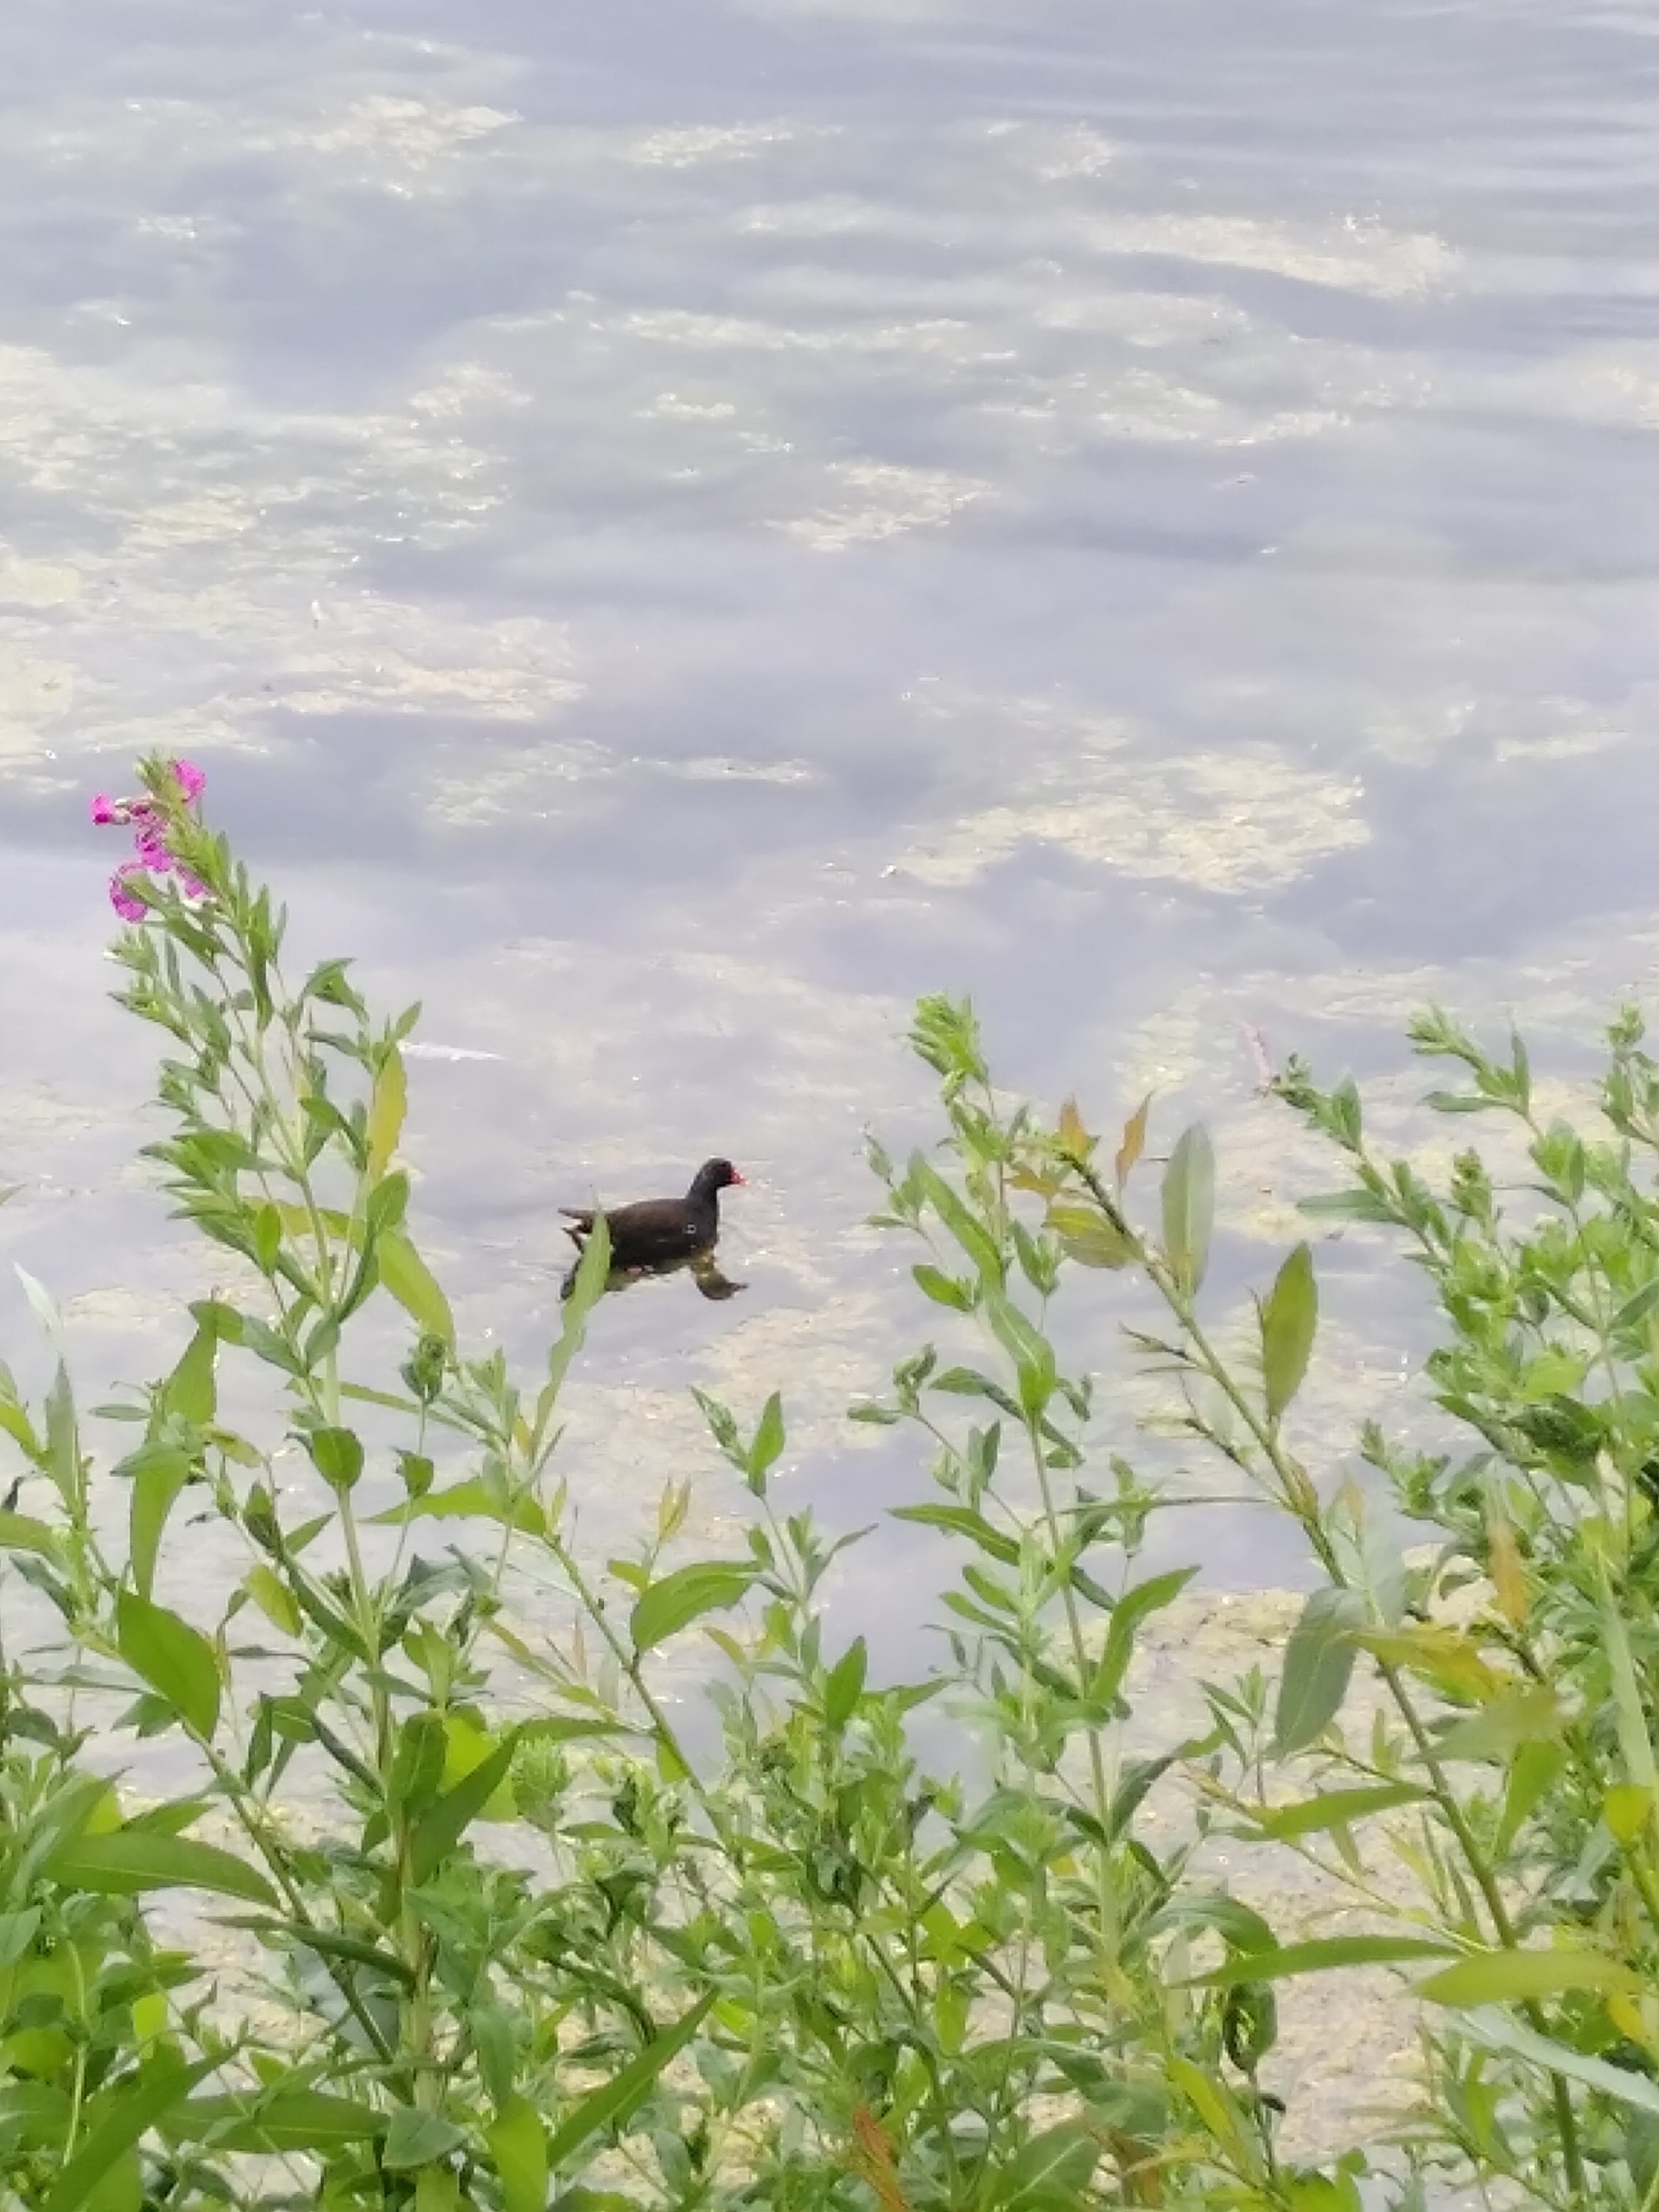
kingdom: Animalia
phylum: Chordata
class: Aves
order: Gruiformes
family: Rallidae
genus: Gallinula
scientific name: Gallinula chloropus
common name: Grønbenet rørhøne
